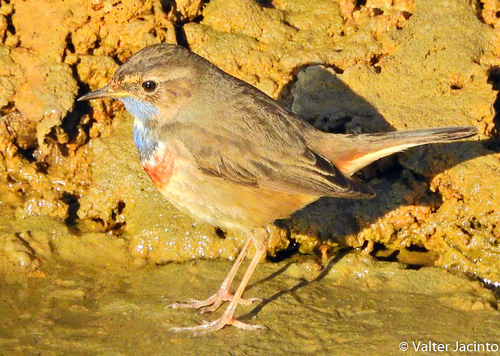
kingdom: Animalia
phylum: Chordata
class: Aves
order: Passeriformes
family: Muscicapidae
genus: Luscinia
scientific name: Luscinia svecica
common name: Bluethroat
